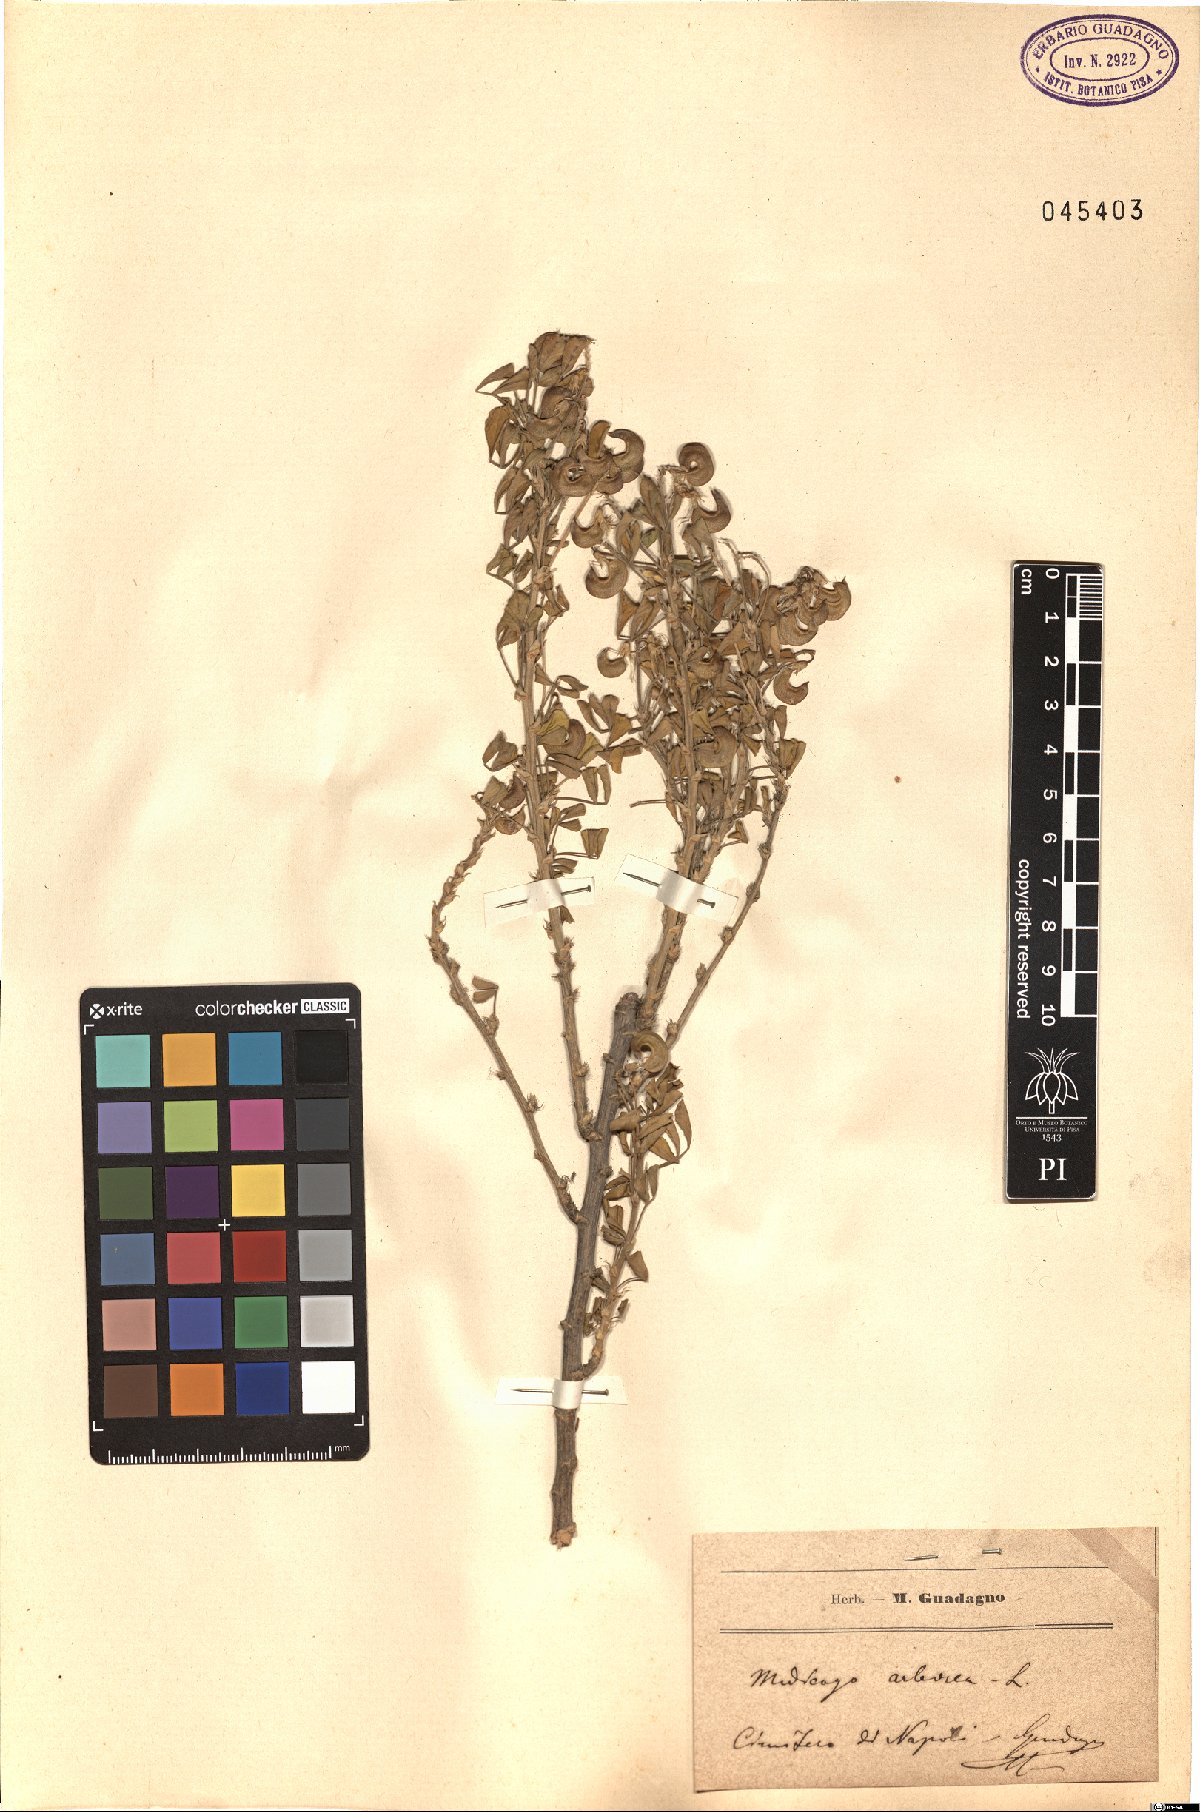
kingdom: Plantae
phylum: Tracheophyta
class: Magnoliopsida
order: Fabales
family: Fabaceae
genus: Medicago
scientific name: Medicago arborea
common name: Moon trefoil
